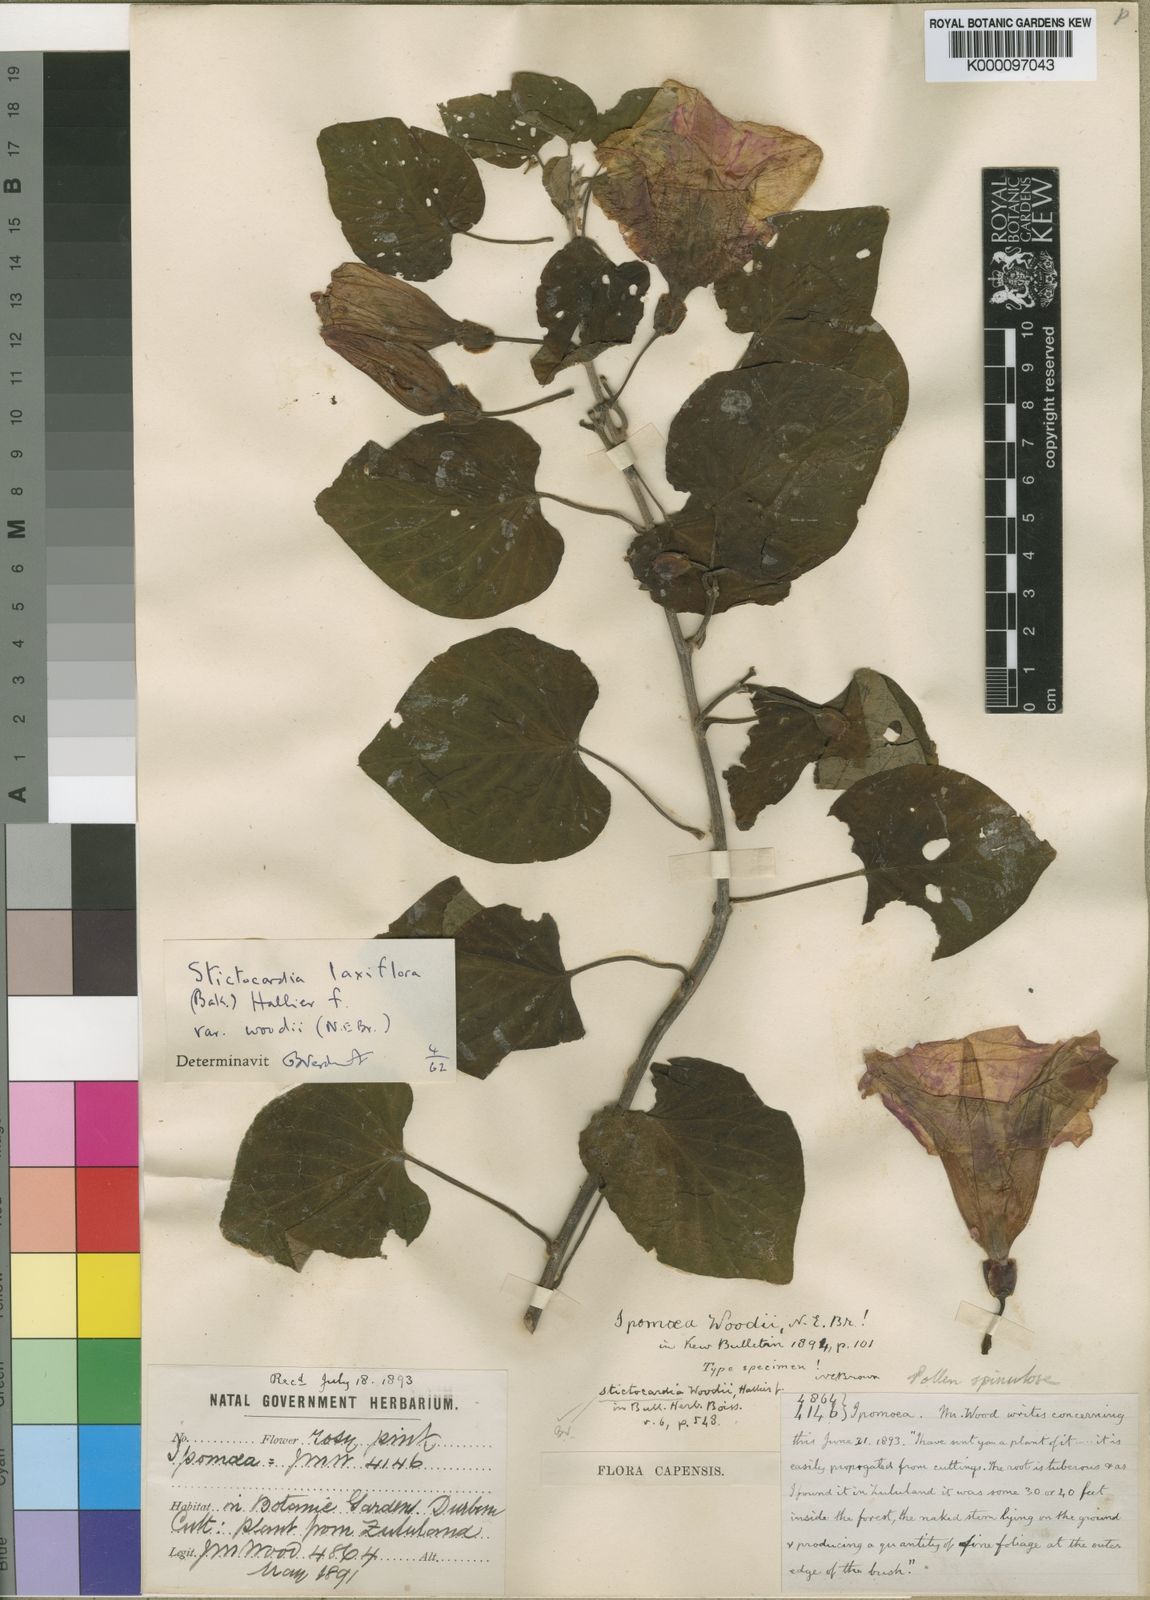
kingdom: Plantae
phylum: Tracheophyta
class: Magnoliopsida
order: Solanales
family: Convolvulaceae
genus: Stictocardia
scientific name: Stictocardia laxiflora
